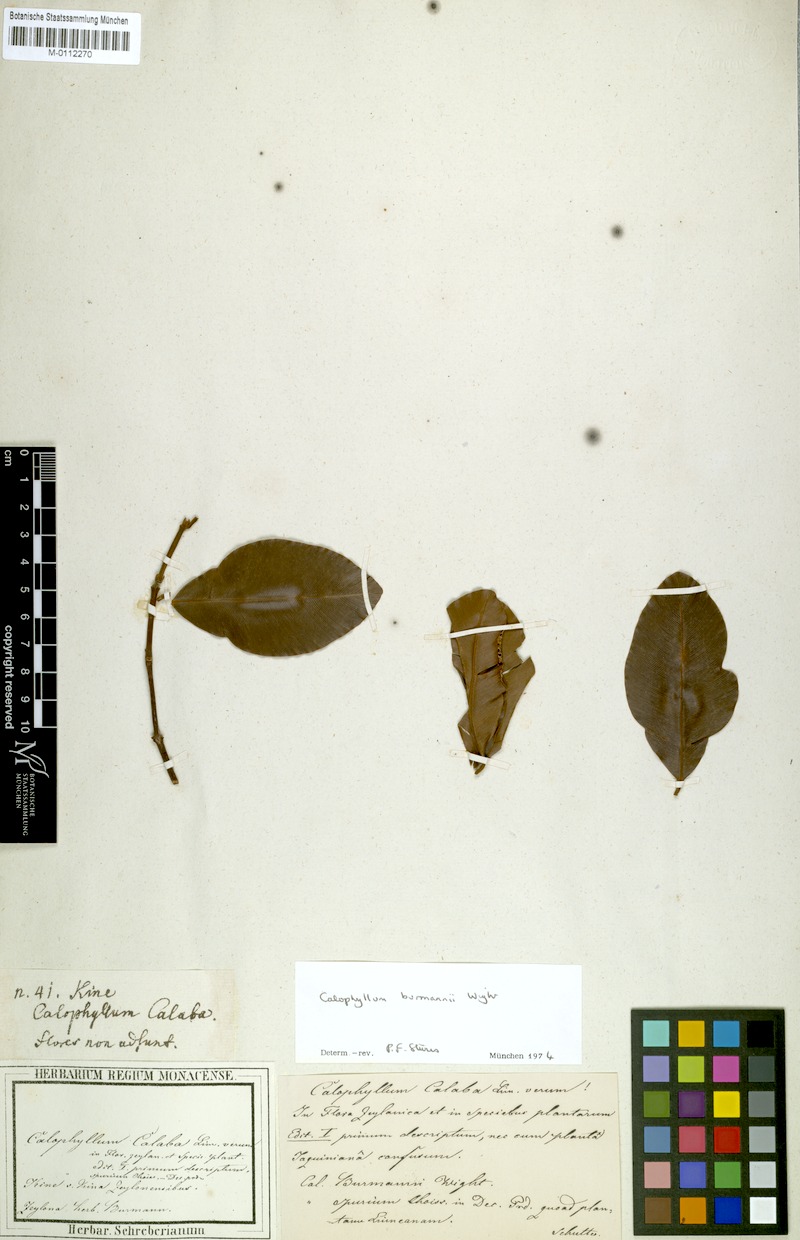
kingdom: Plantae
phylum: Tracheophyta
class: Magnoliopsida
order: Malpighiales
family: Calophyllaceae
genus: Calophyllum
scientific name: Calophyllum calaba
